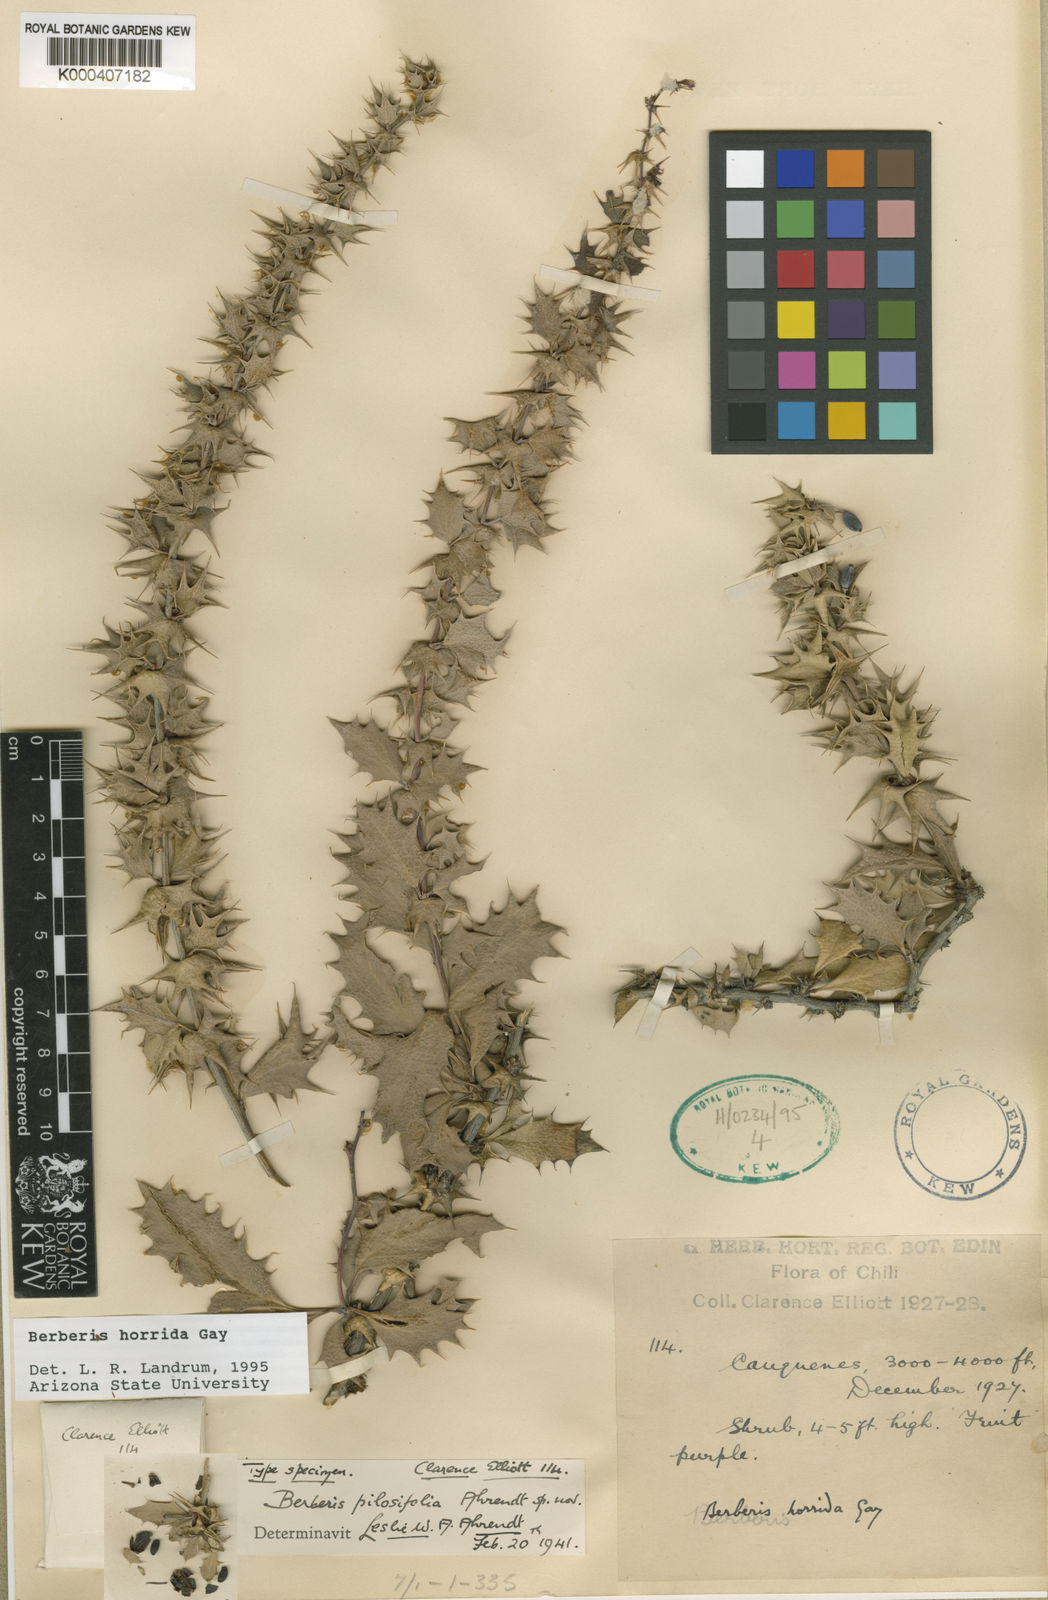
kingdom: Plantae
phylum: Tracheophyta
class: Magnoliopsida
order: Ranunculales
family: Berberidaceae
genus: Berberis
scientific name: Berberis horrida
